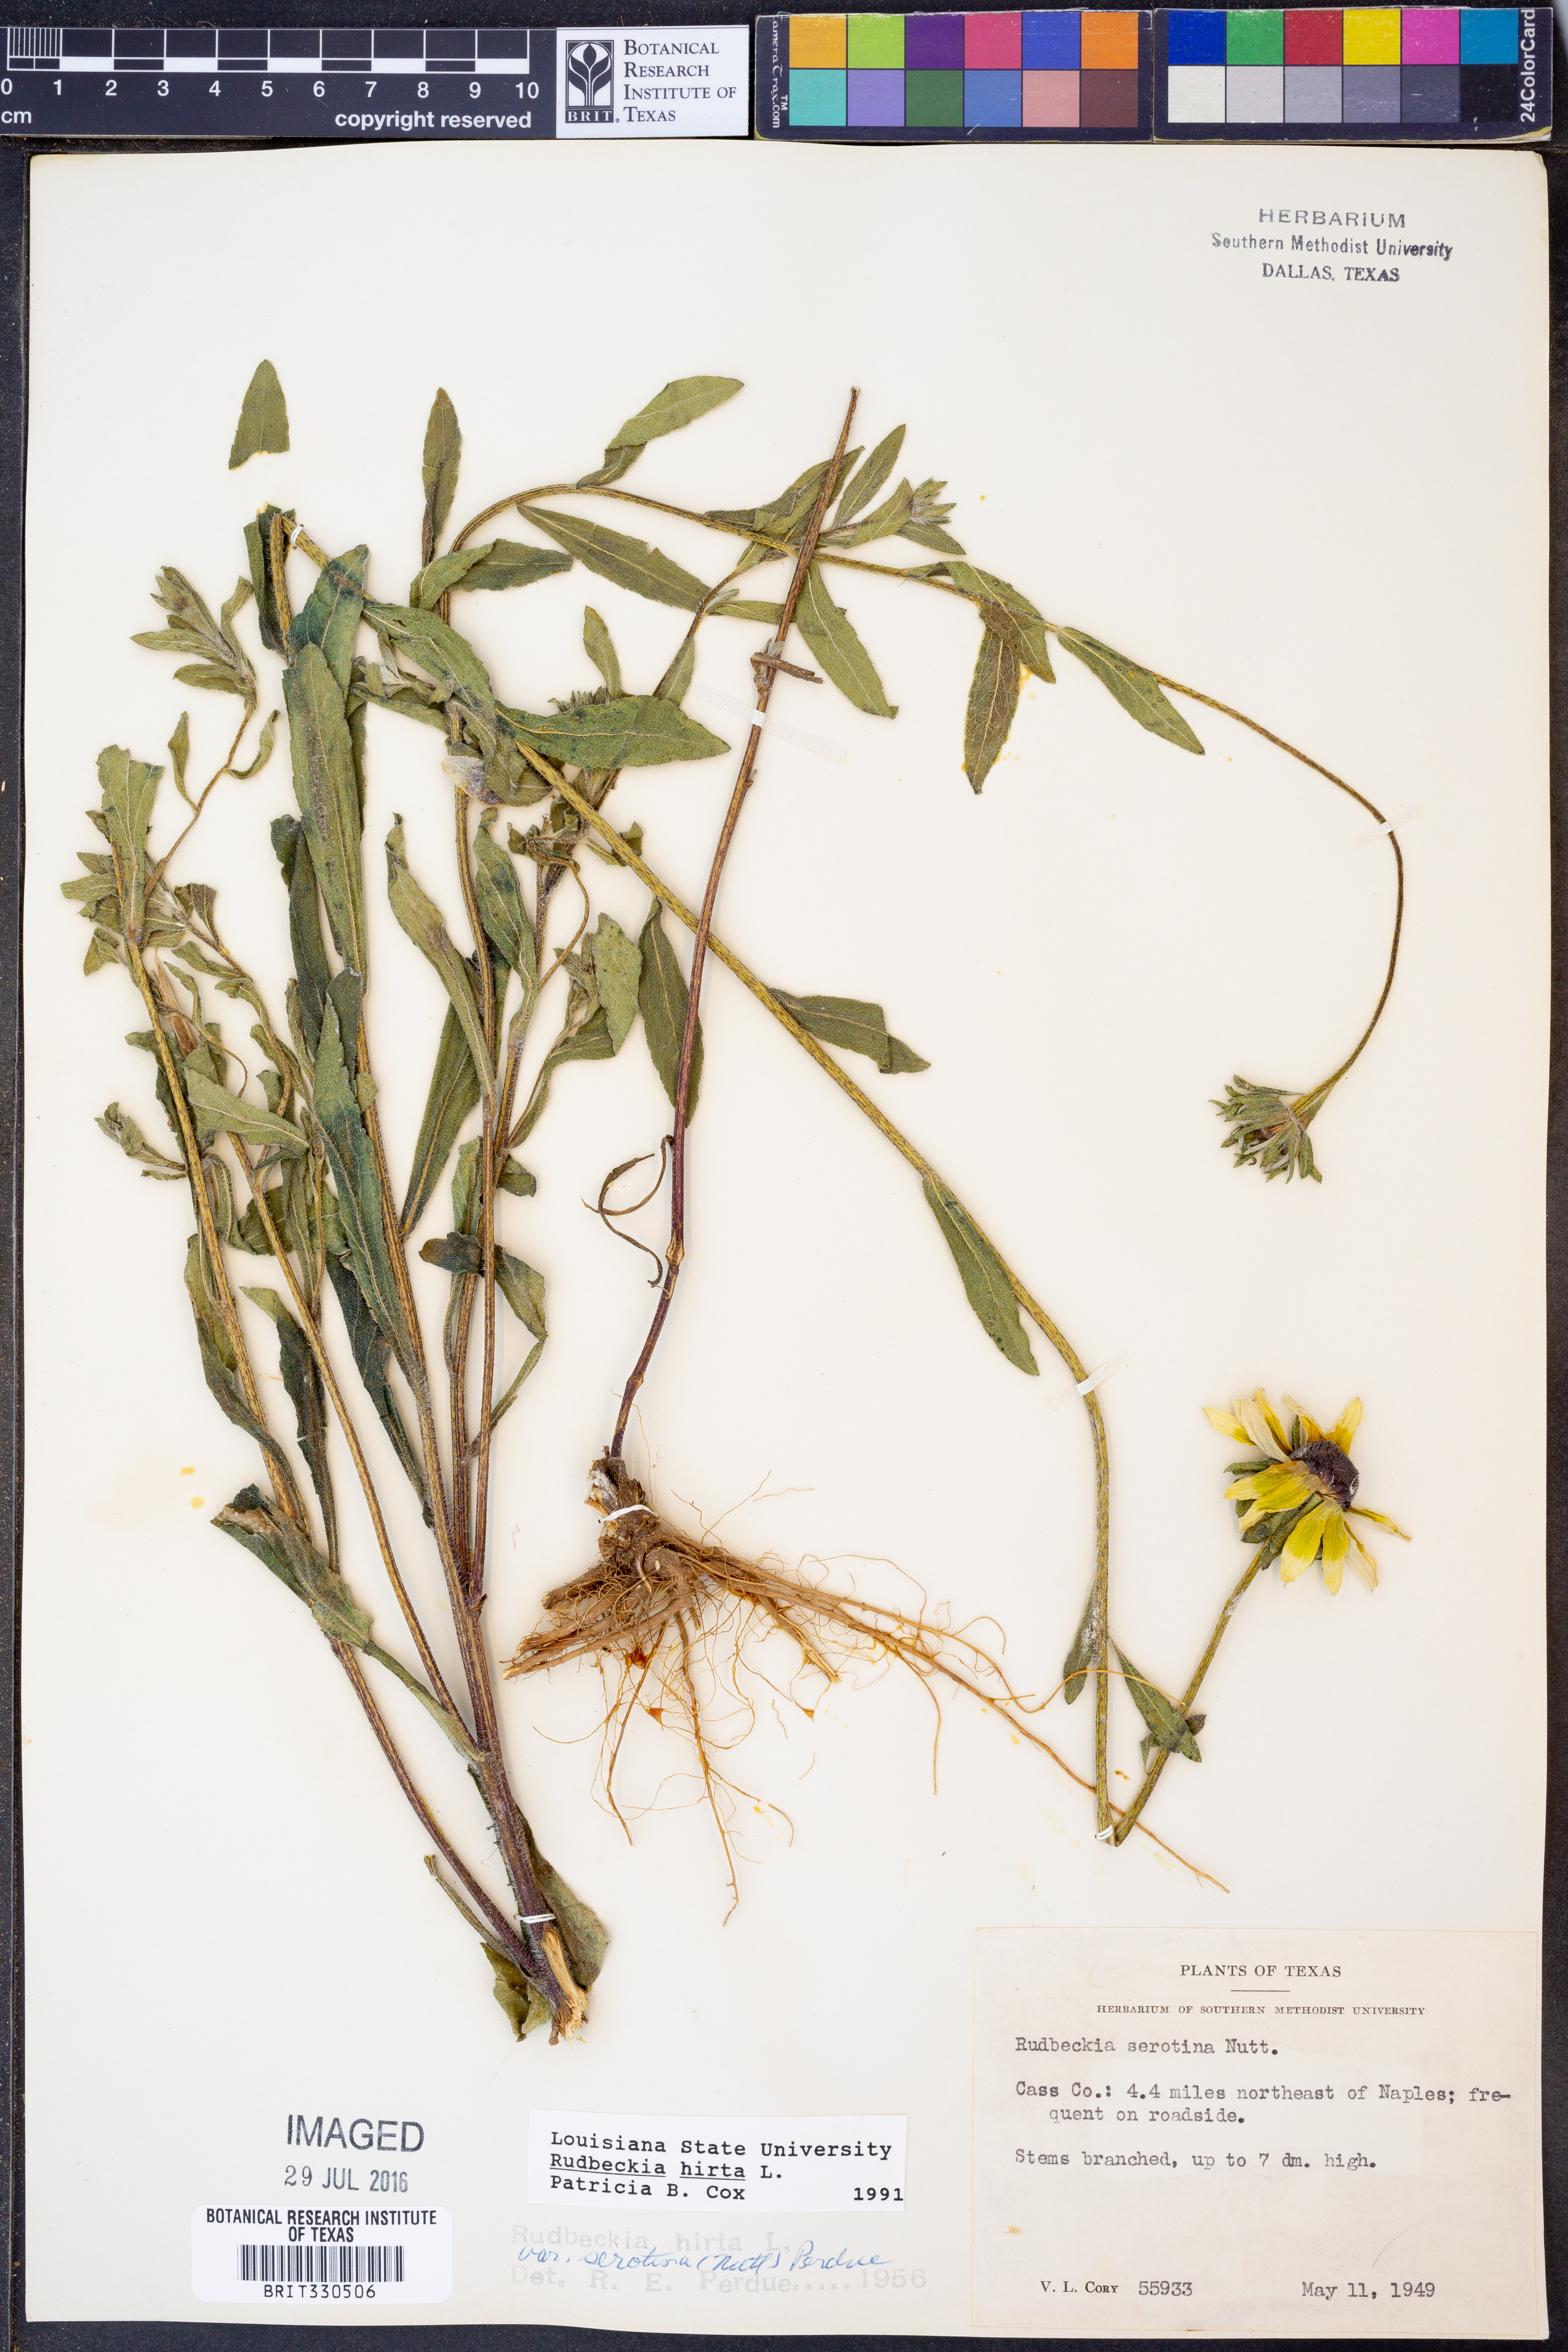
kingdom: Plantae
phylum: Tracheophyta
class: Magnoliopsida
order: Asterales
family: Asteraceae
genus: Rudbeckia
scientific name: Rudbeckia hirta
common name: Black-eyed-susan
